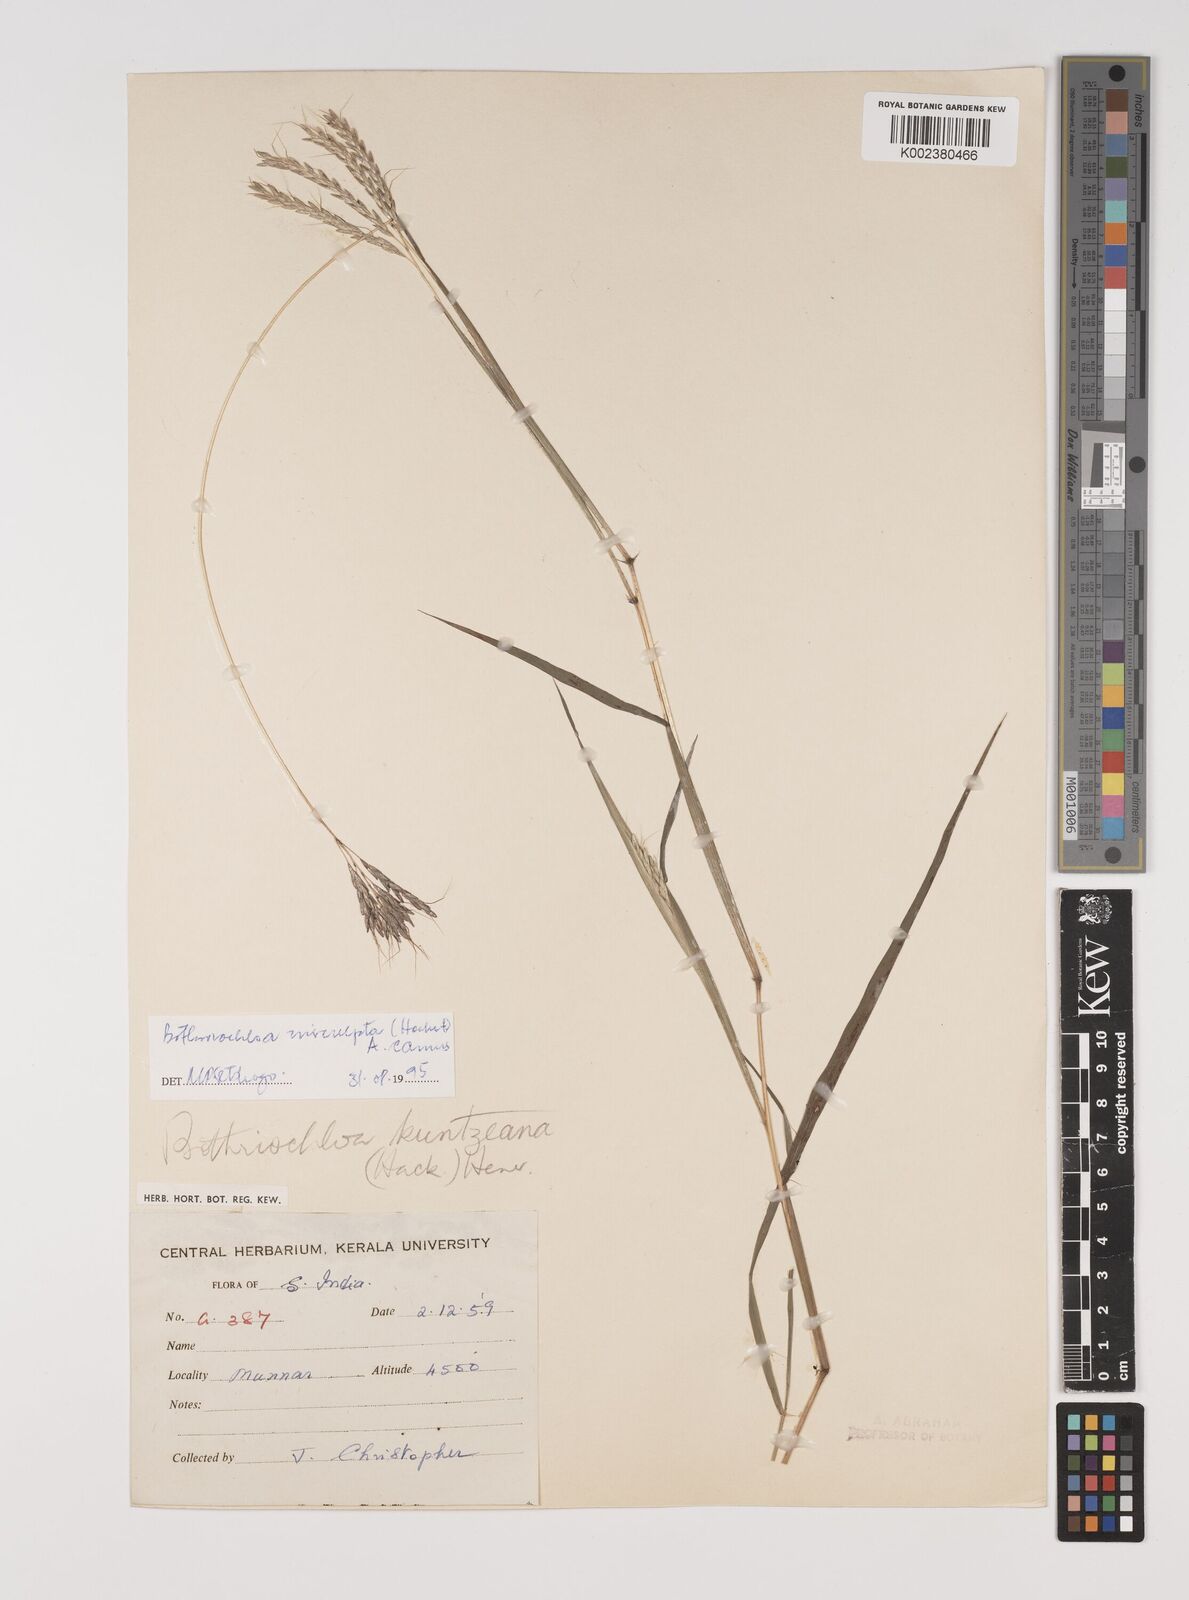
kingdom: Plantae
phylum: Tracheophyta
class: Liliopsida
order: Poales
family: Poaceae
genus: Bothriochloa
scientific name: Bothriochloa insculpta
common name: Creeping-bluegrass
